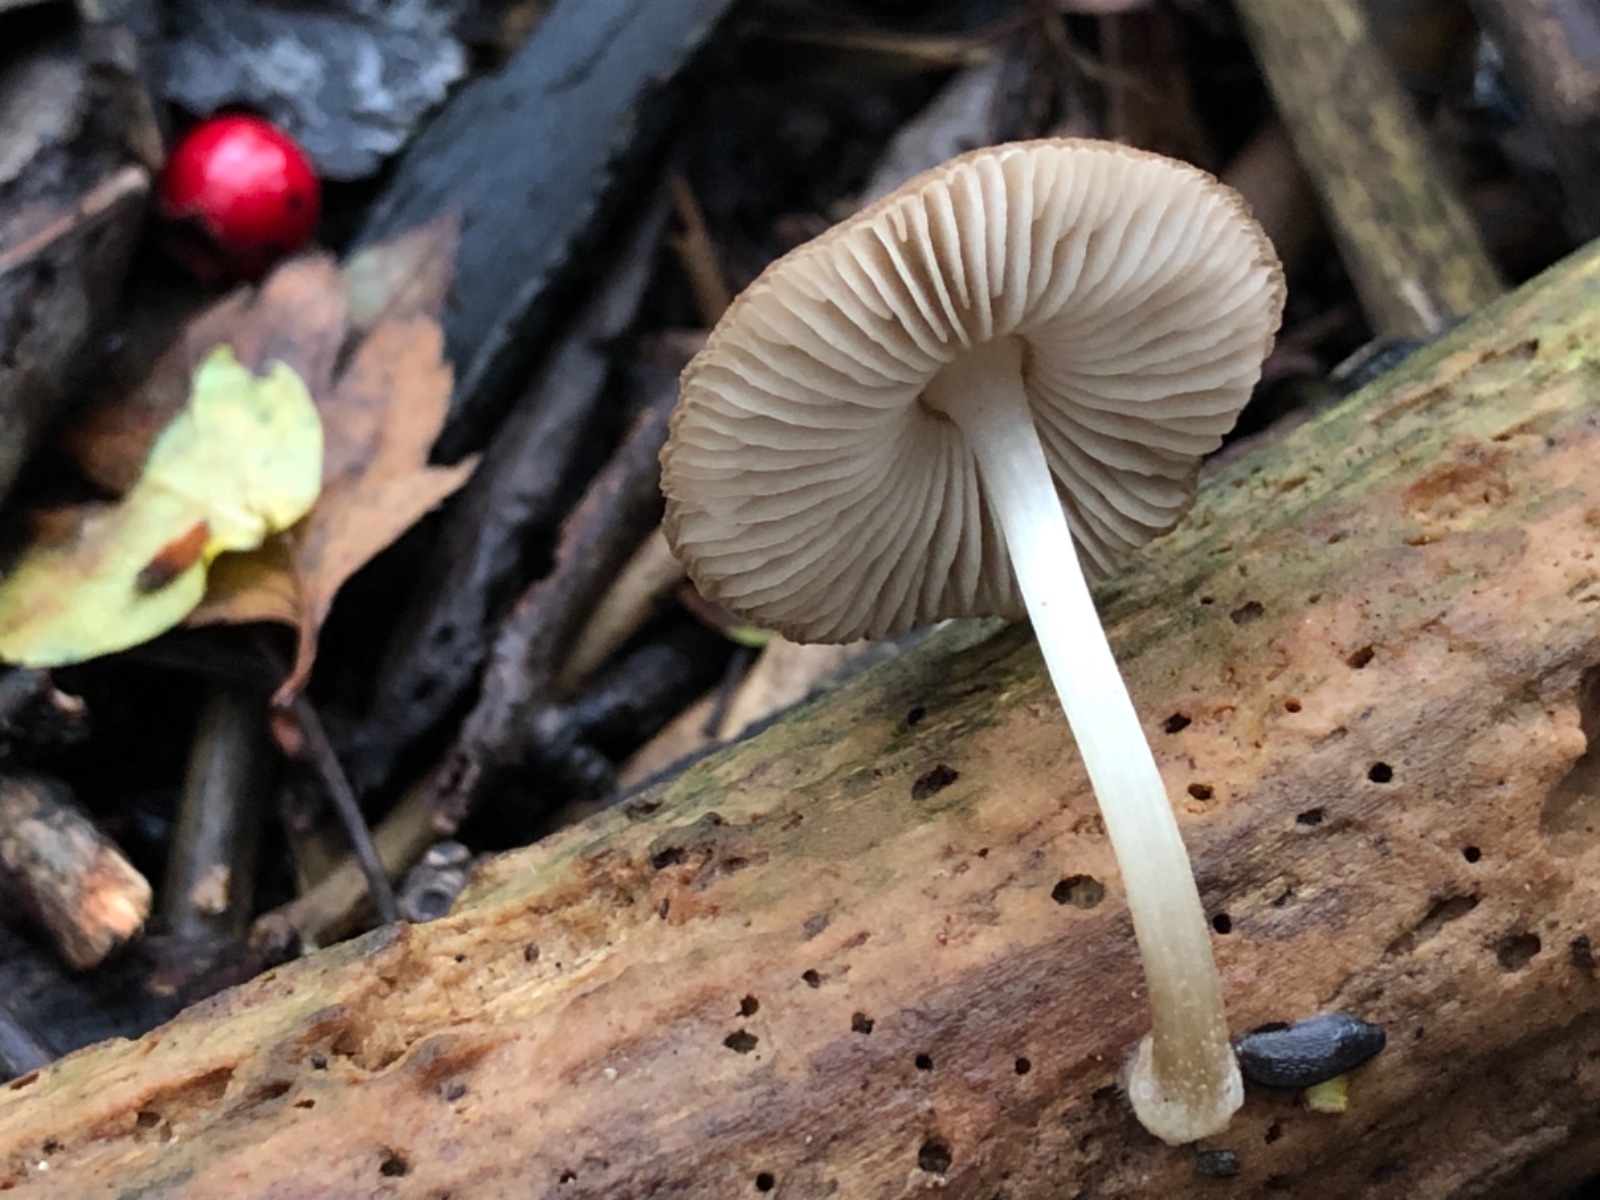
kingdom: Fungi
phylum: Basidiomycota
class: Agaricomycetes
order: Agaricales
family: Pluteaceae
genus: Pluteus
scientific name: Pluteus
